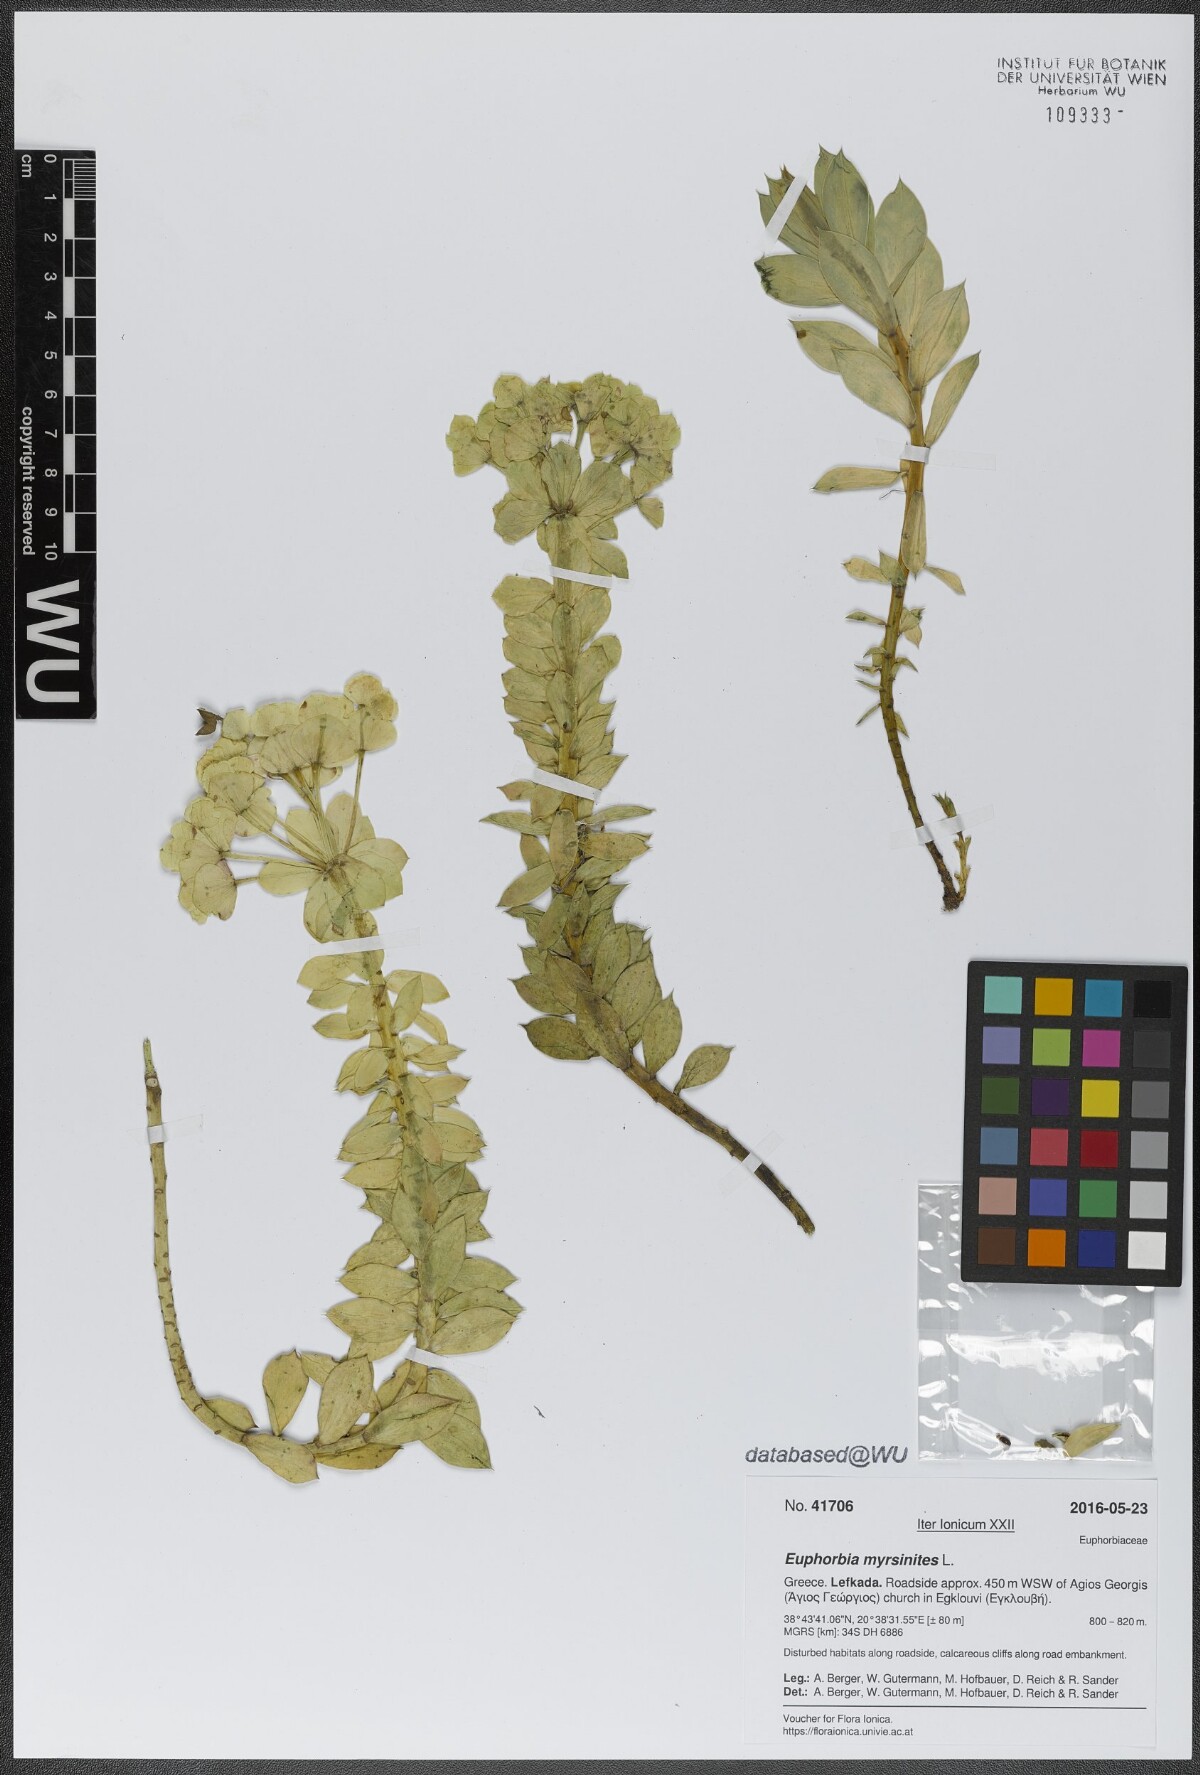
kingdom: Plantae
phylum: Tracheophyta
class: Magnoliopsida
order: Malpighiales
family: Euphorbiaceae
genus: Euphorbia
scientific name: Euphorbia myrsinites
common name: Myrtle spurge
